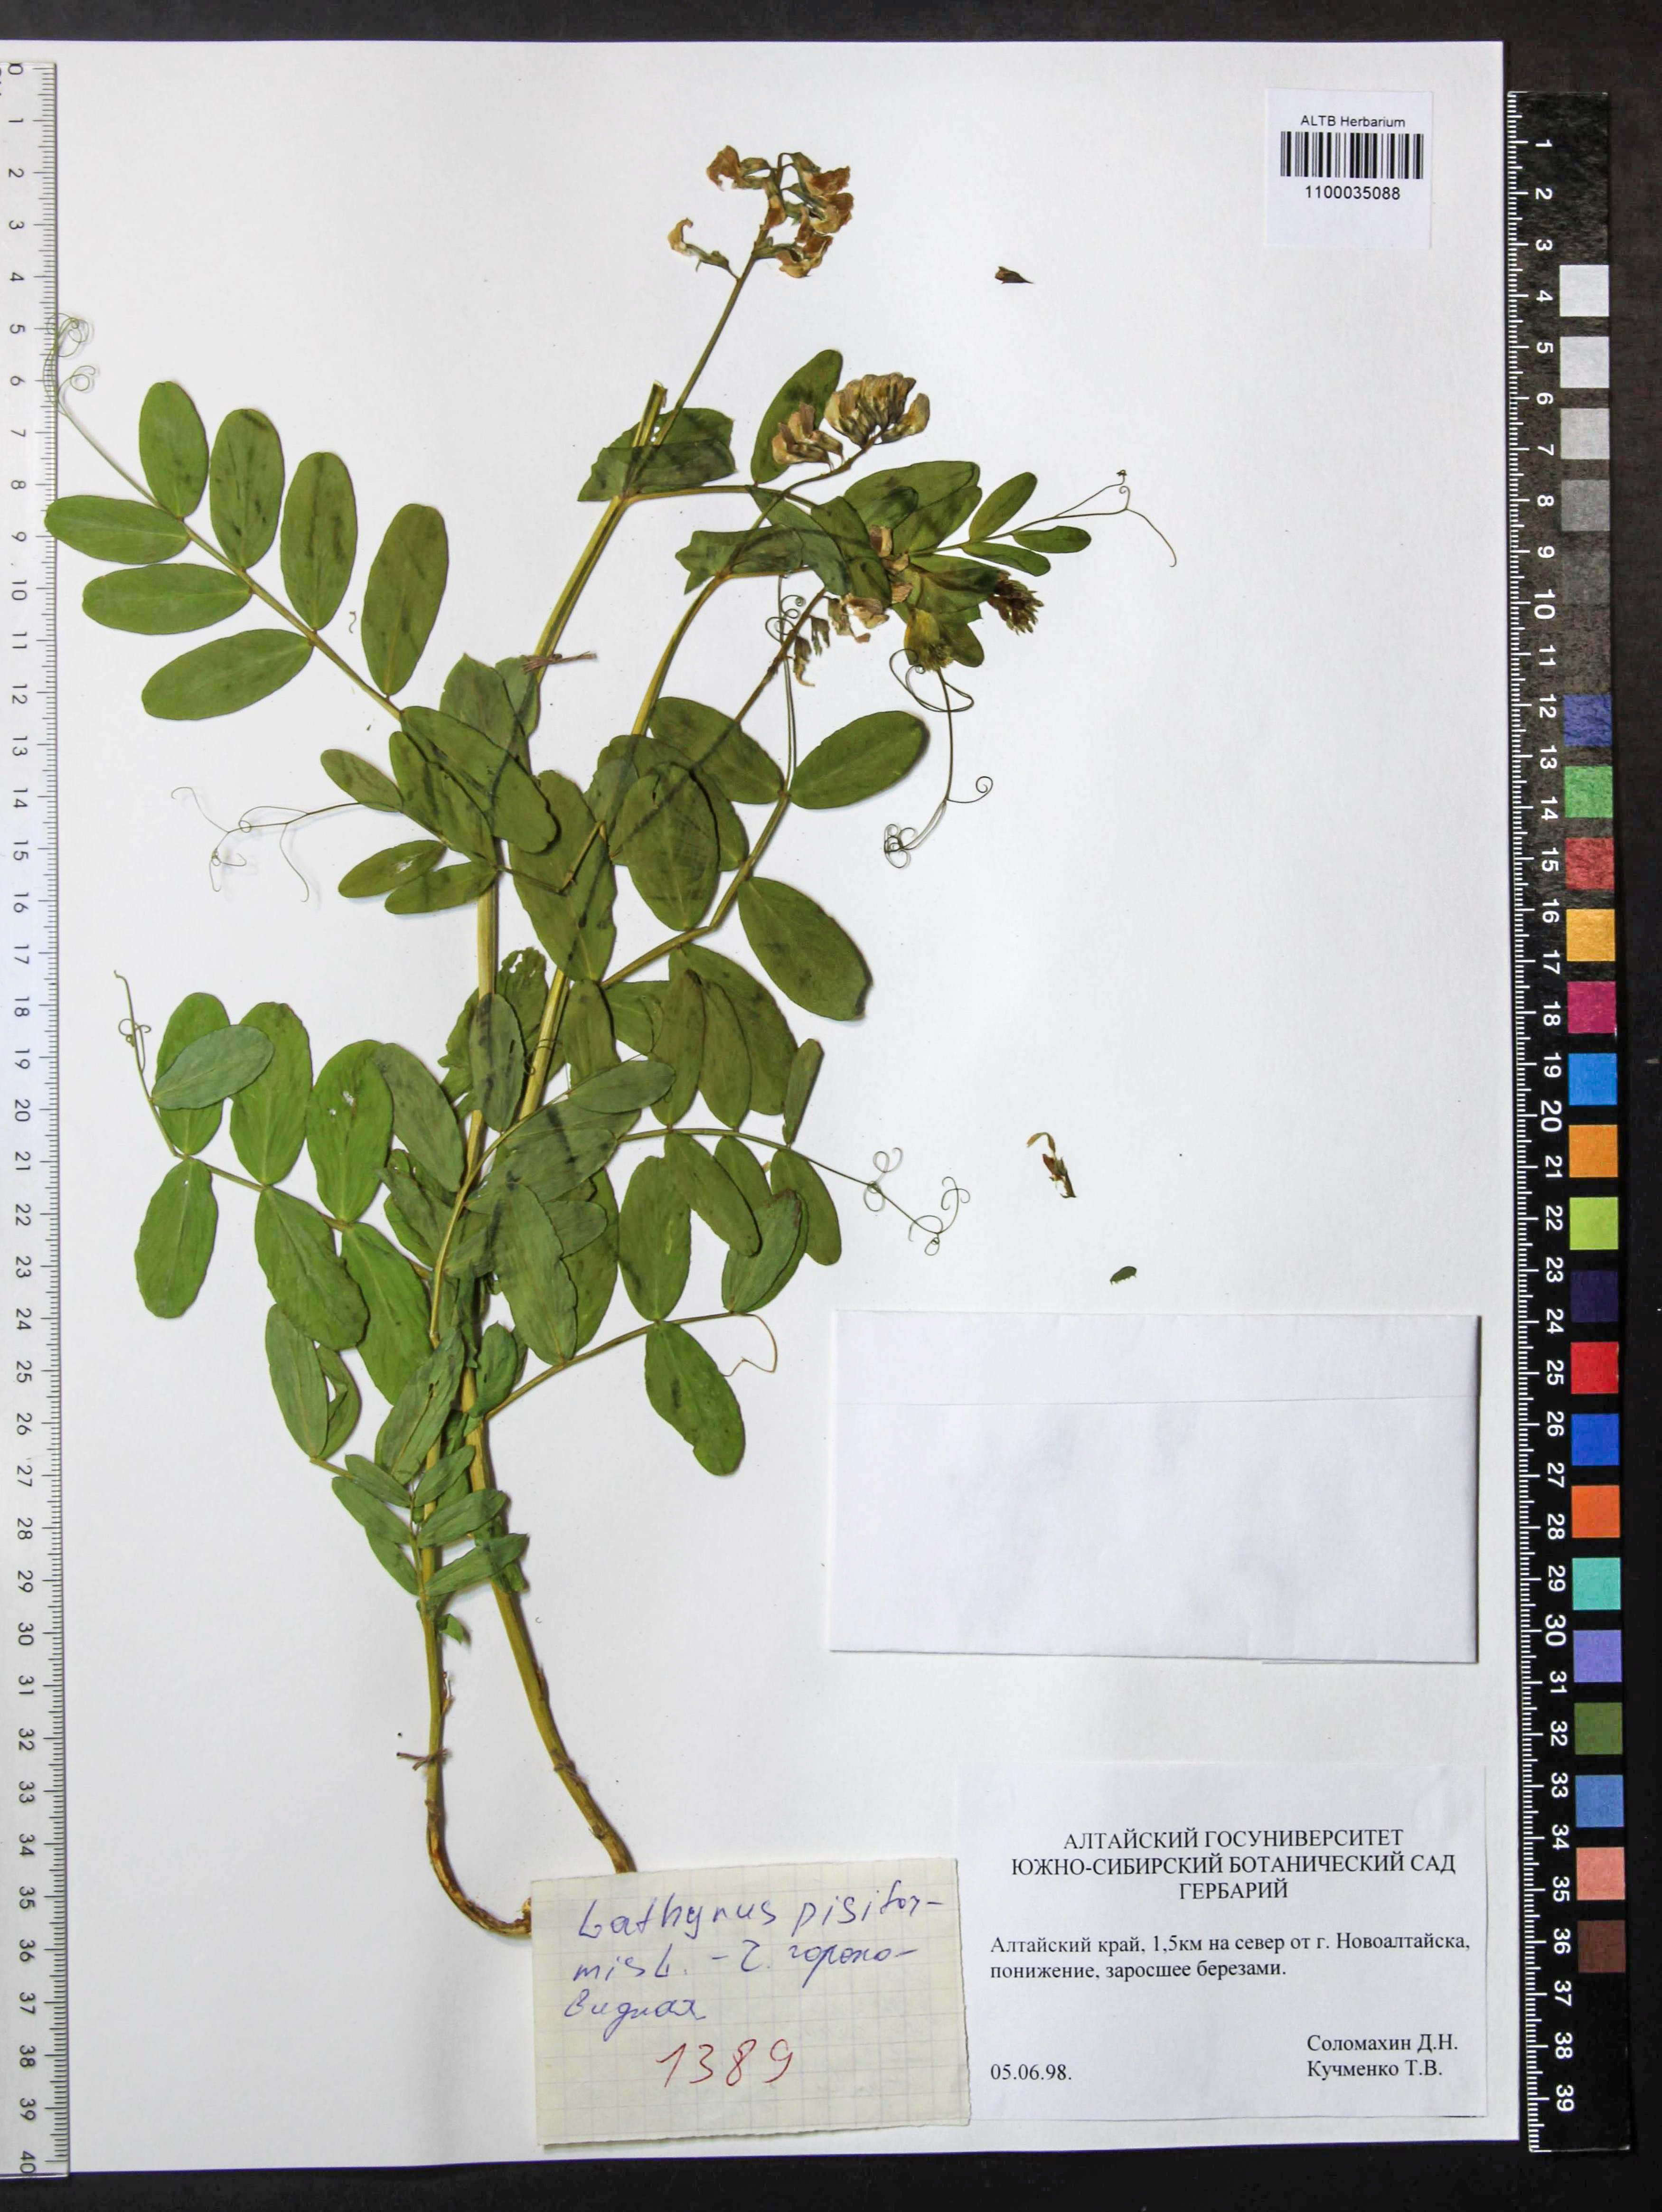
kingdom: Plantae
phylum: Tracheophyta
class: Magnoliopsida
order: Fabales
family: Fabaceae
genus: Lathyrus
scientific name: Lathyrus pisiformis
